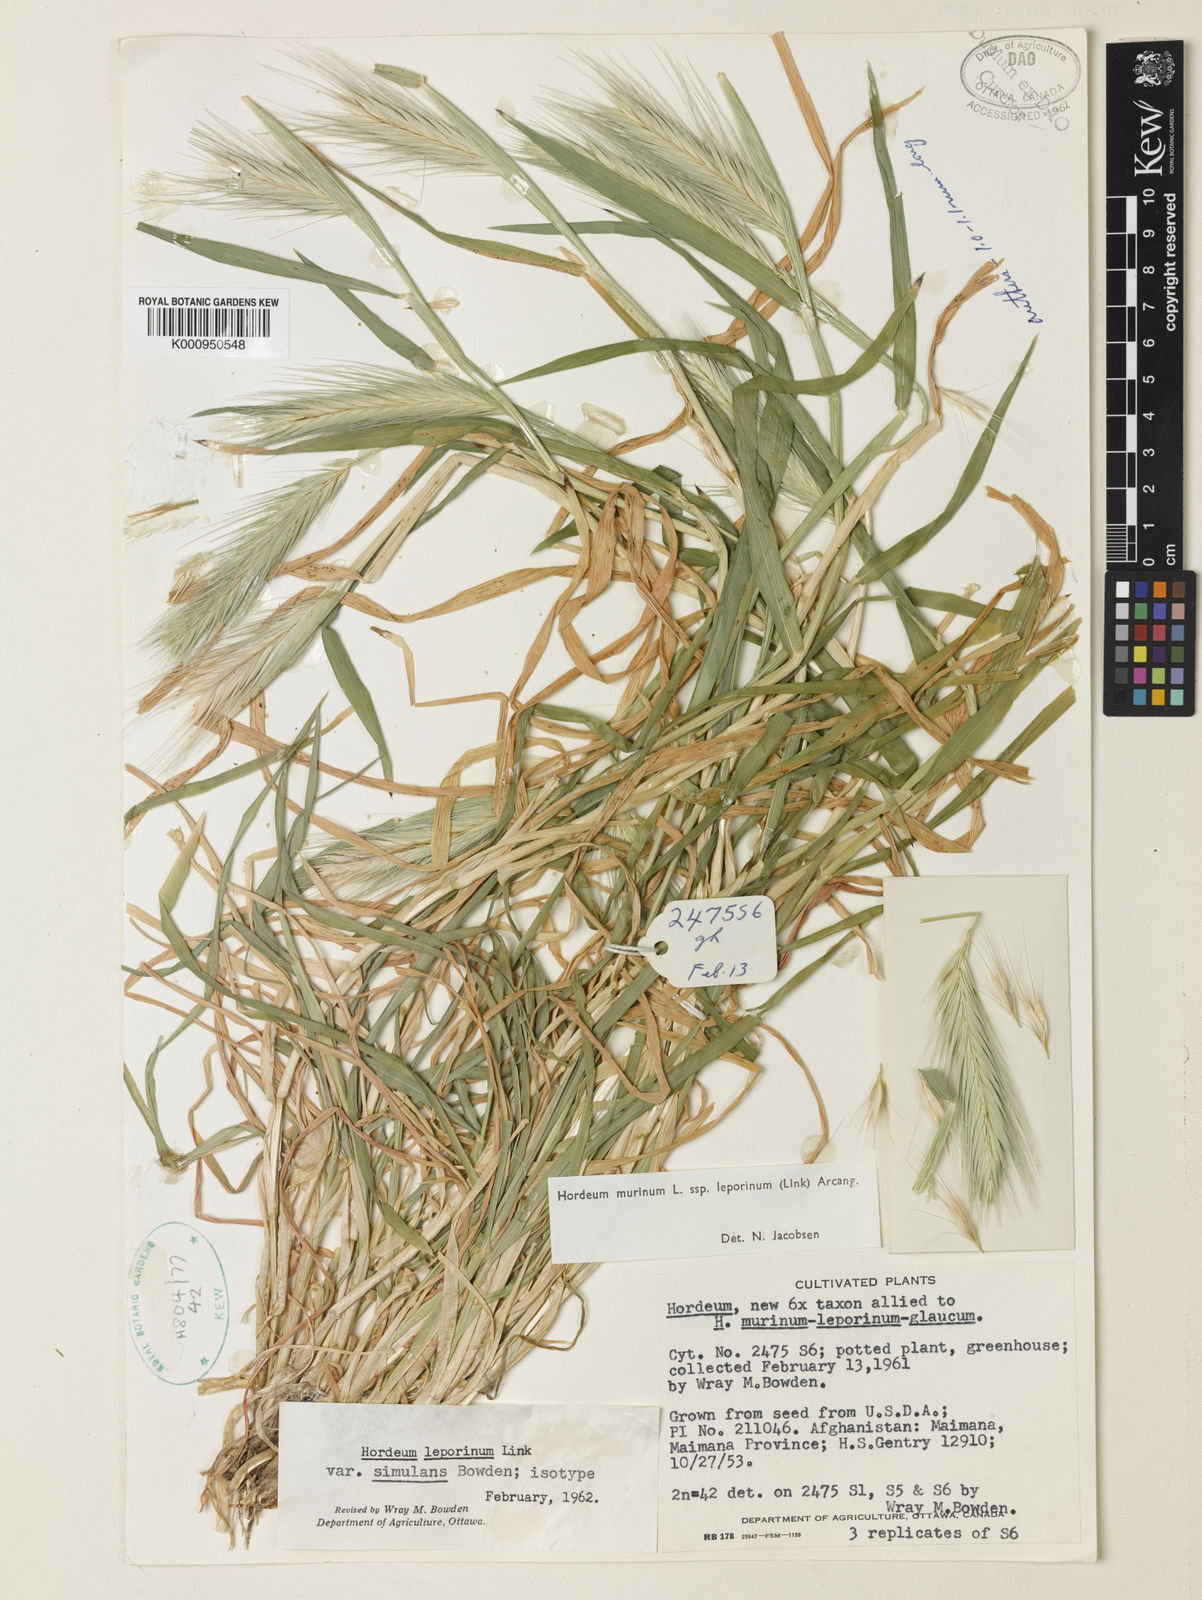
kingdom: Plantae
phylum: Tracheophyta
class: Liliopsida
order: Poales
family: Poaceae
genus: Hordeum
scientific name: Hordeum murinum
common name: Wall barley
